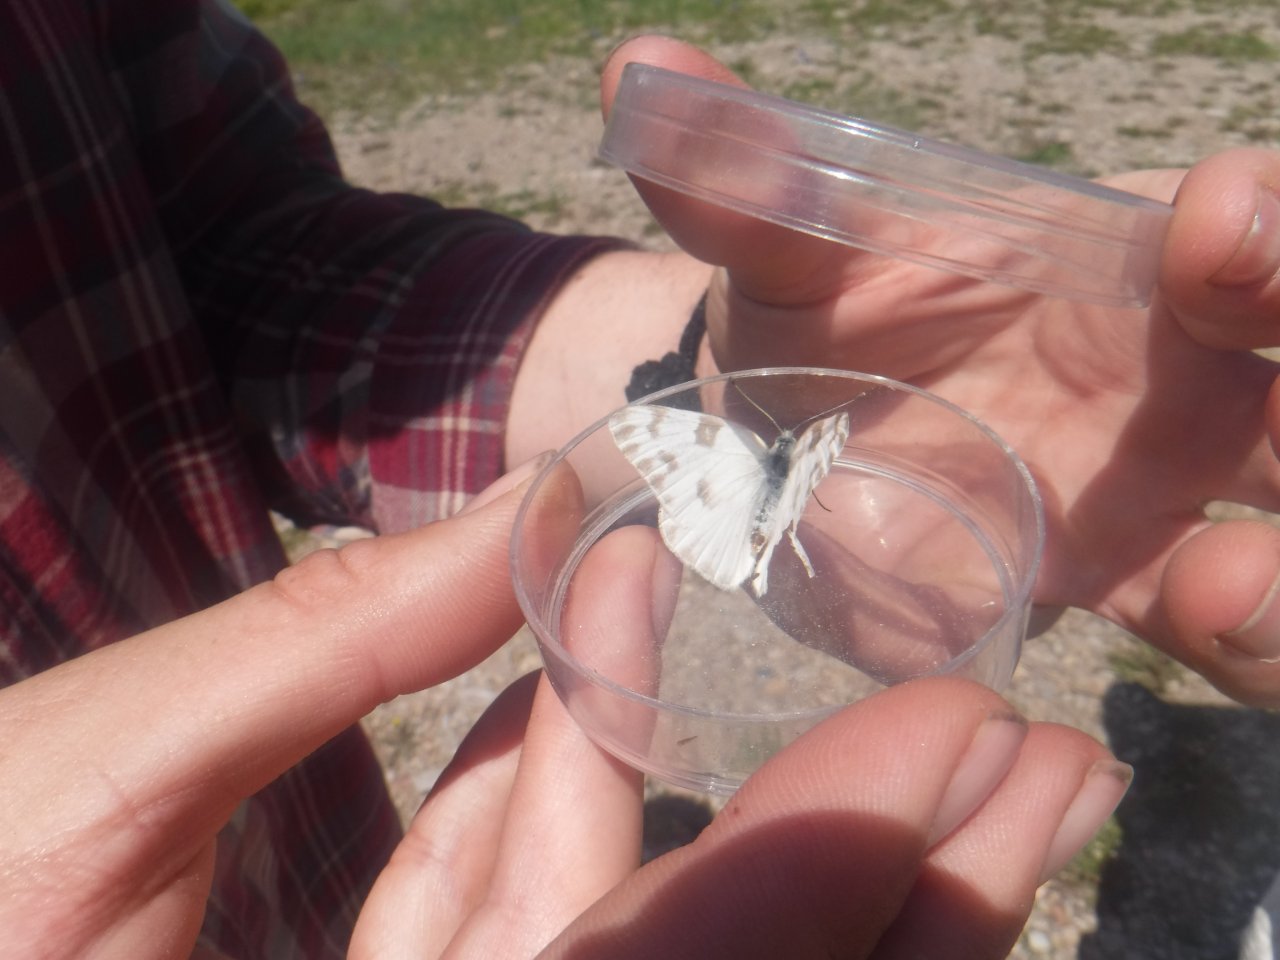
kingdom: Animalia
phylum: Arthropoda
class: Insecta
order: Lepidoptera
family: Pieridae
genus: Pontia
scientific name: Pontia
